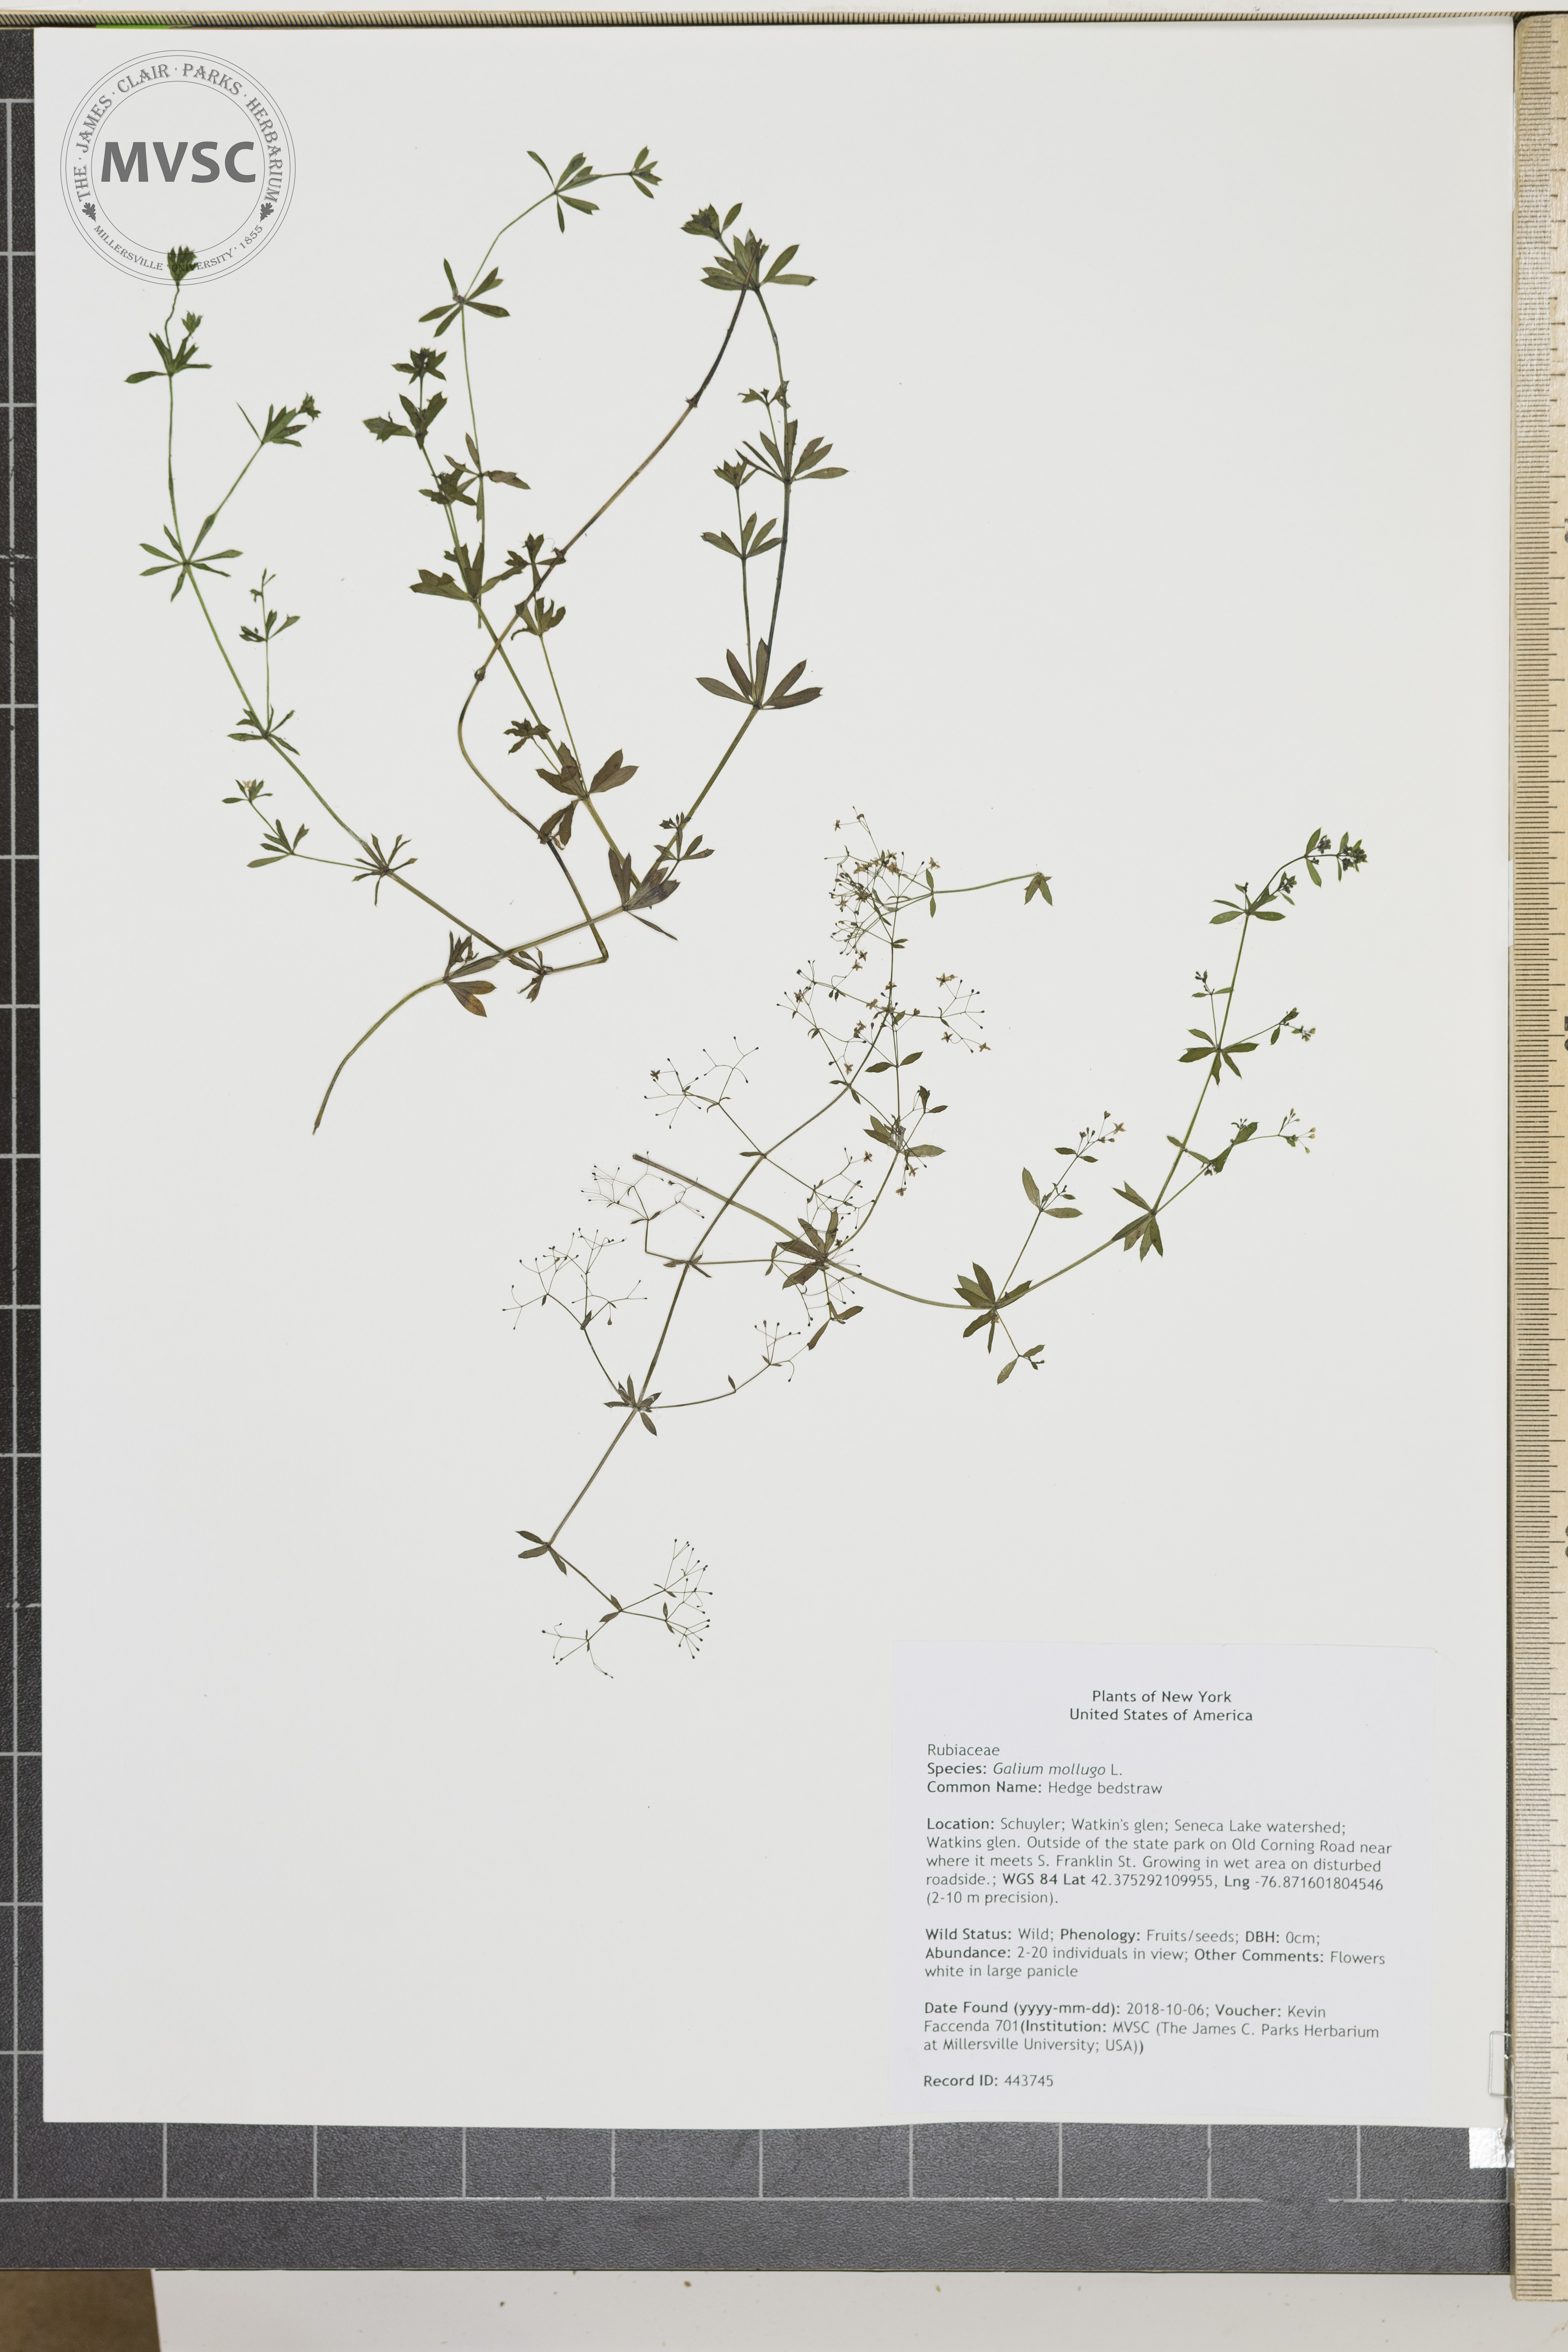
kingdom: Plantae
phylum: Tracheophyta
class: Magnoliopsida
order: Gentianales
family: Rubiaceae
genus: Galium
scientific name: Galium mollugo
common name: Hedge bedstraw
